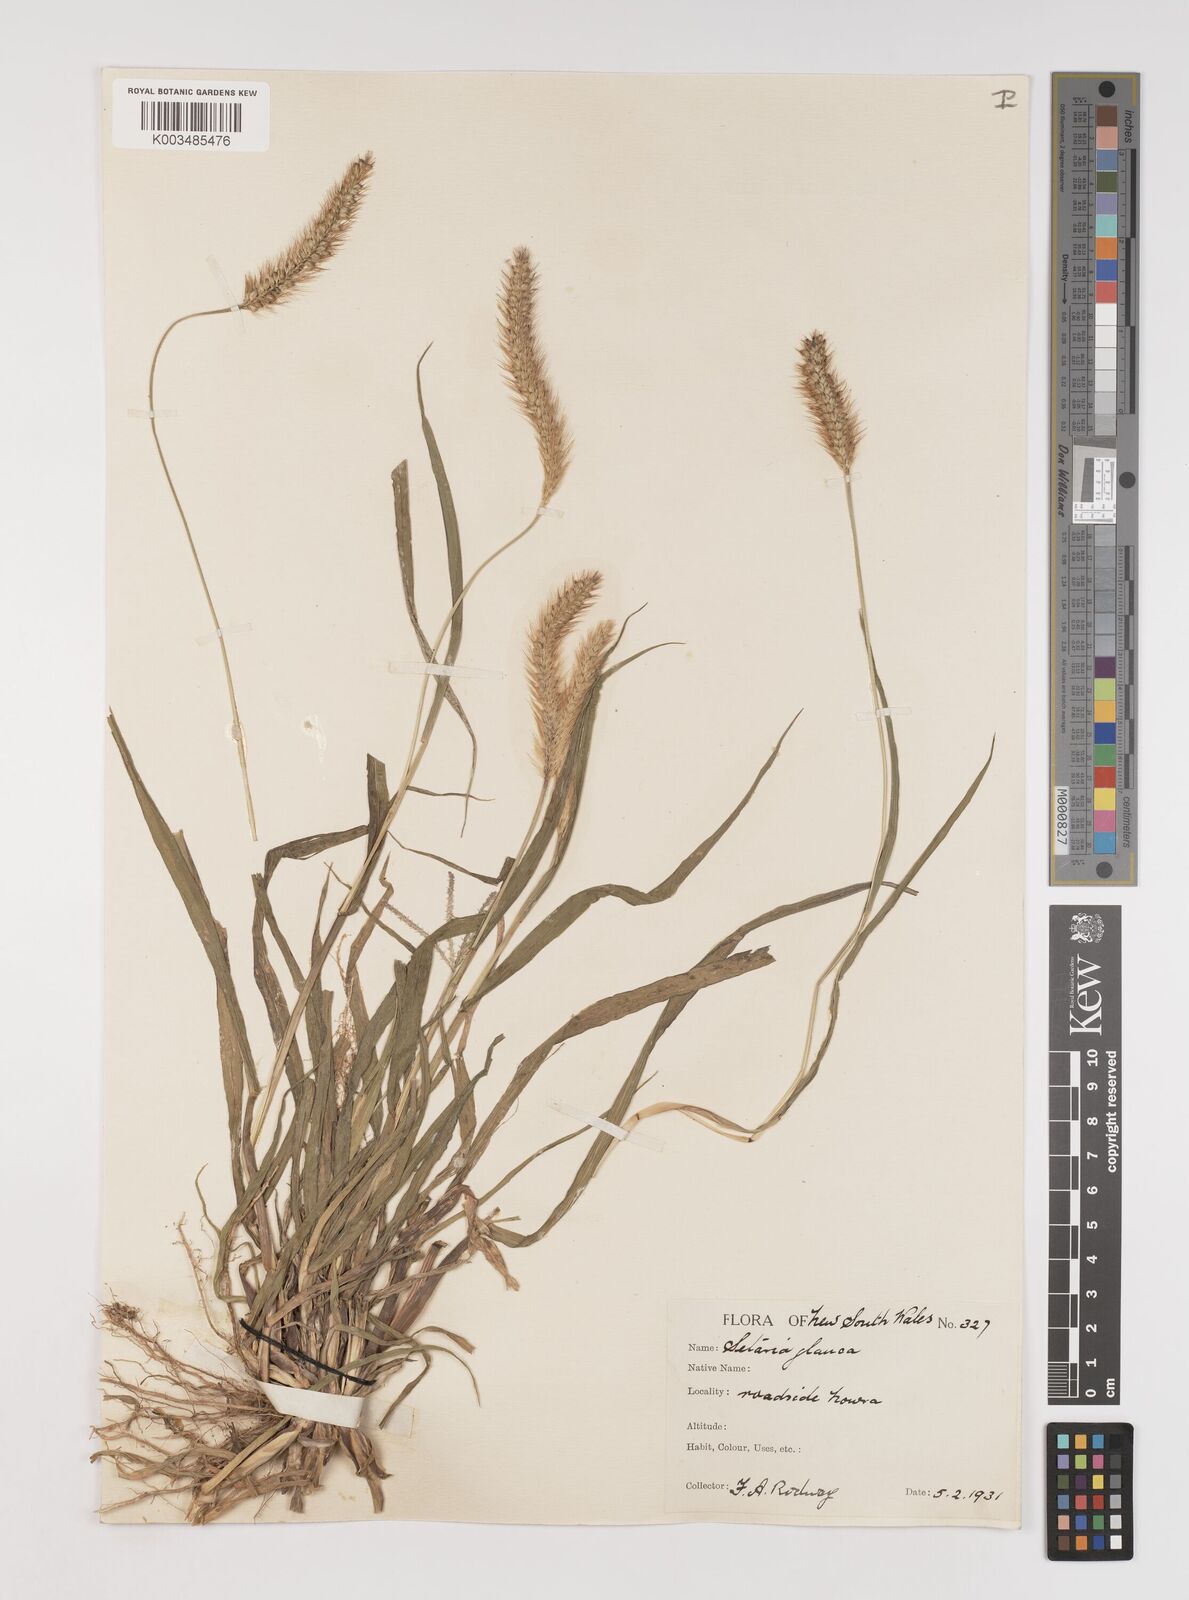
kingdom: Plantae
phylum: Tracheophyta
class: Liliopsida
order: Poales
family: Poaceae
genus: Setaria
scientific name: Setaria pumila
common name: Yellow bristle-grass
